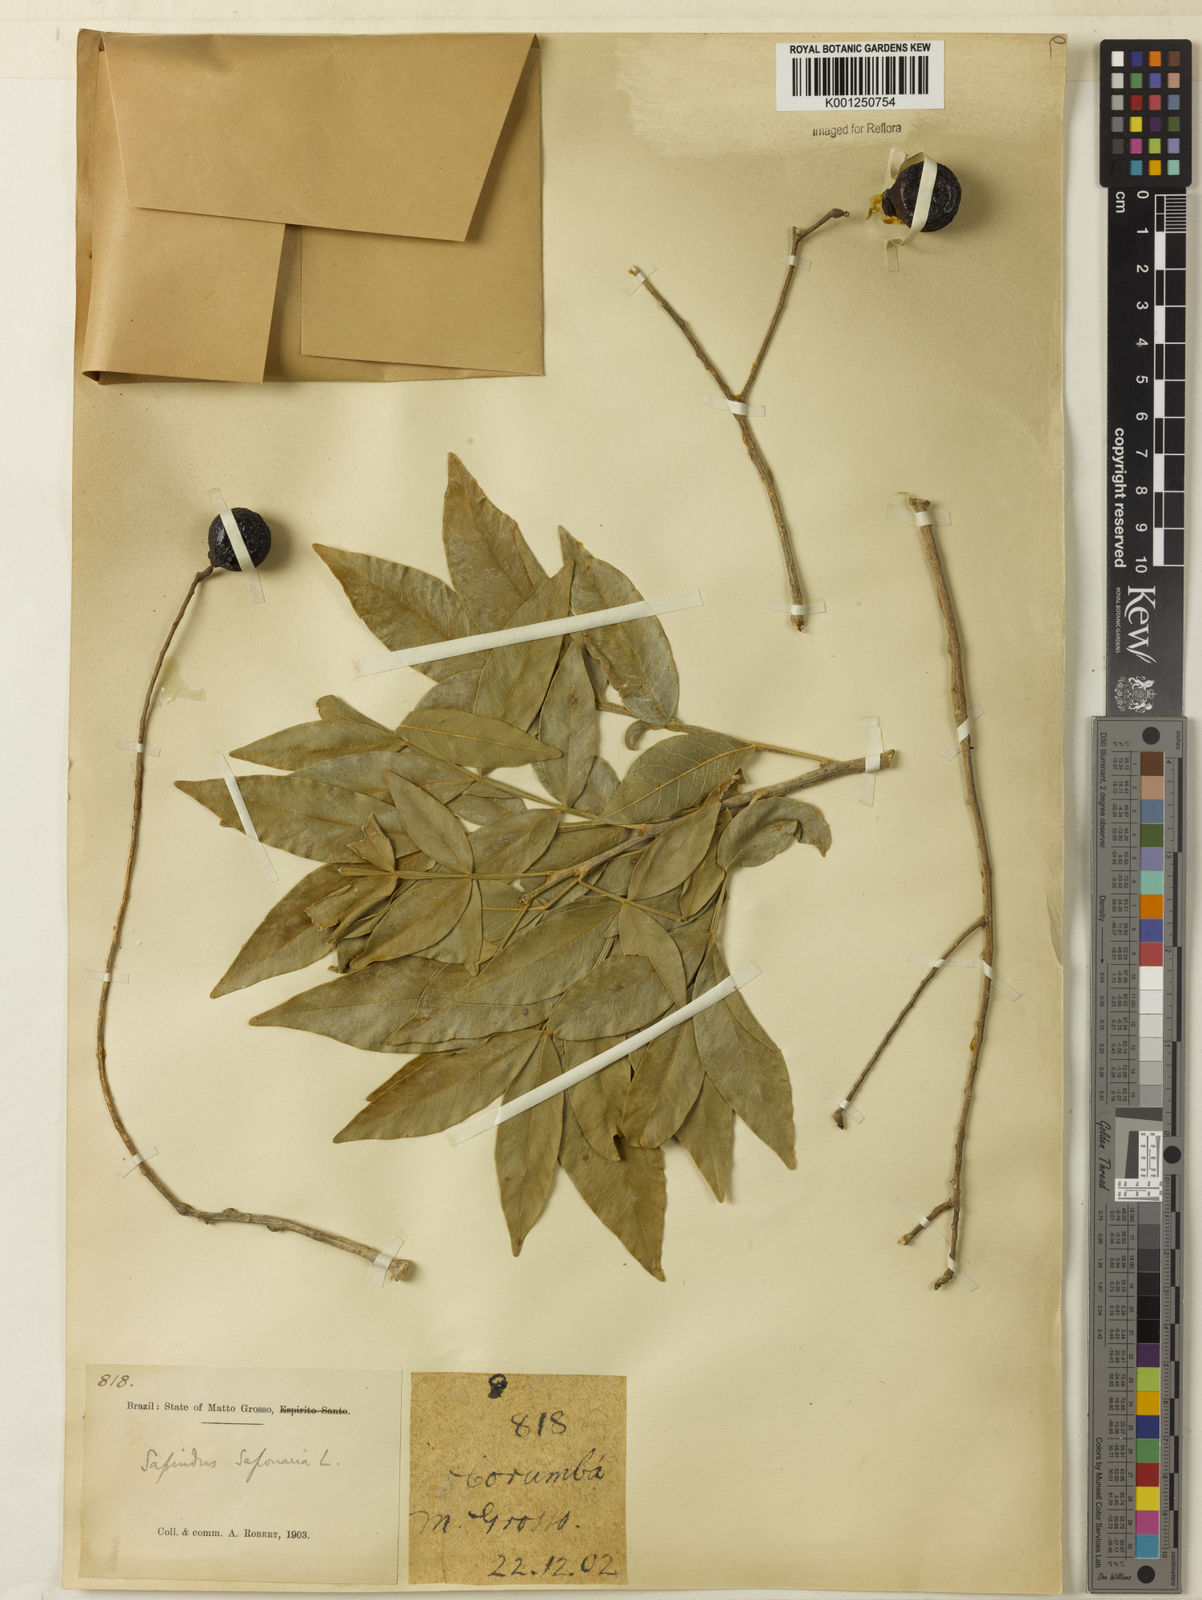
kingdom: Plantae
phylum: Tracheophyta
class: Magnoliopsida
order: Sapindales
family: Sapindaceae
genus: Sapindus
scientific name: Sapindus
